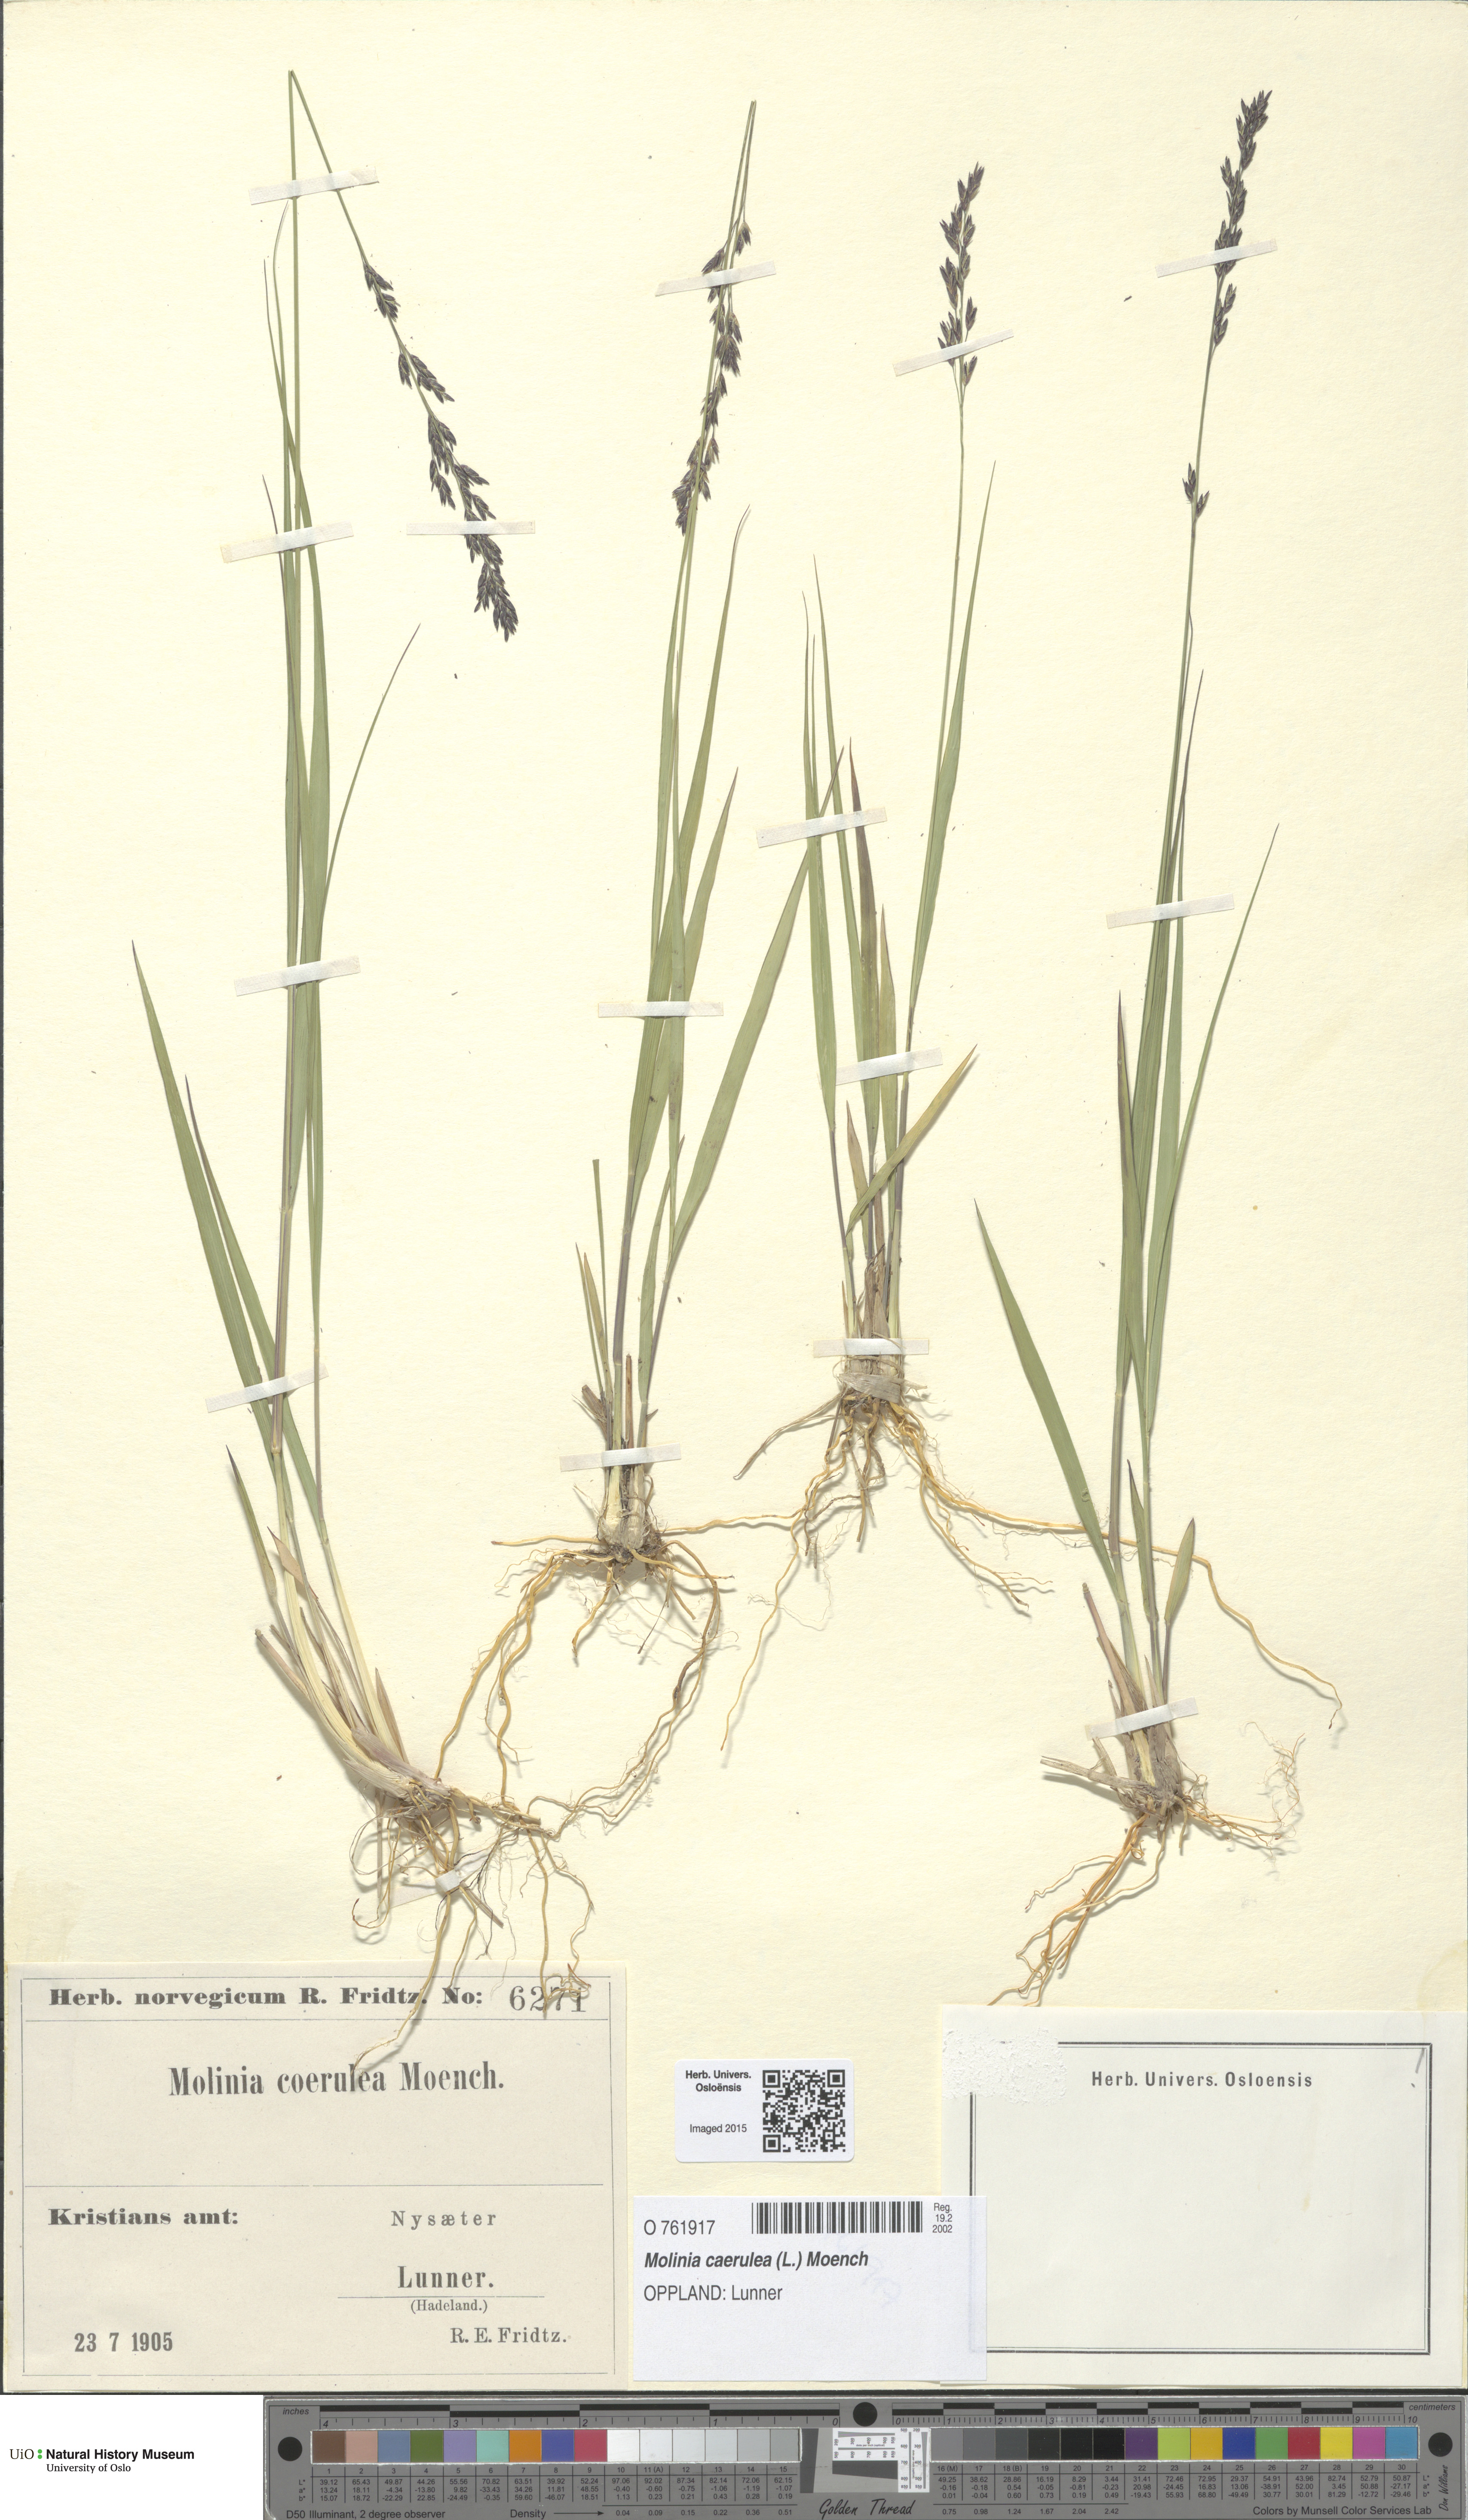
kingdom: Plantae
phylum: Tracheophyta
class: Liliopsida
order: Poales
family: Poaceae
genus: Molinia
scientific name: Molinia caerulea
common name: Purple moor-grass
